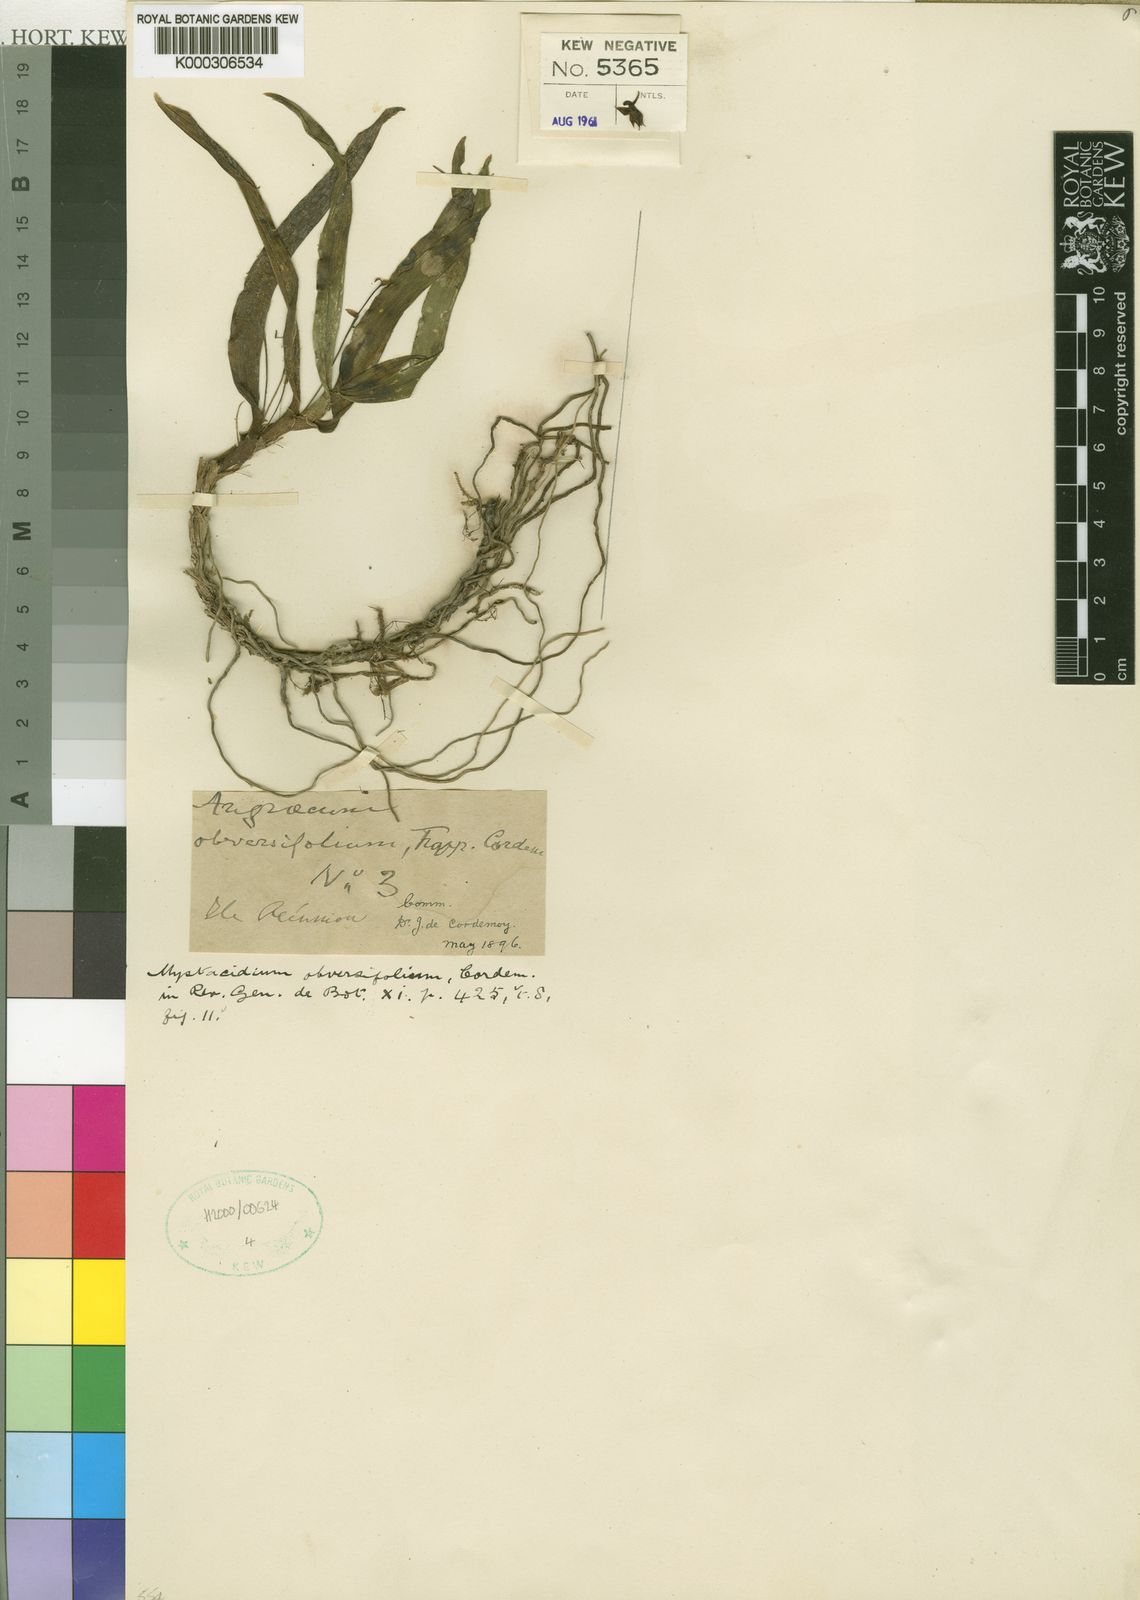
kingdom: Plantae
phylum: Tracheophyta
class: Liliopsida
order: Asparagales
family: Orchidaceae
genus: Angraecum
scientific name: Angraecum obversifolium
